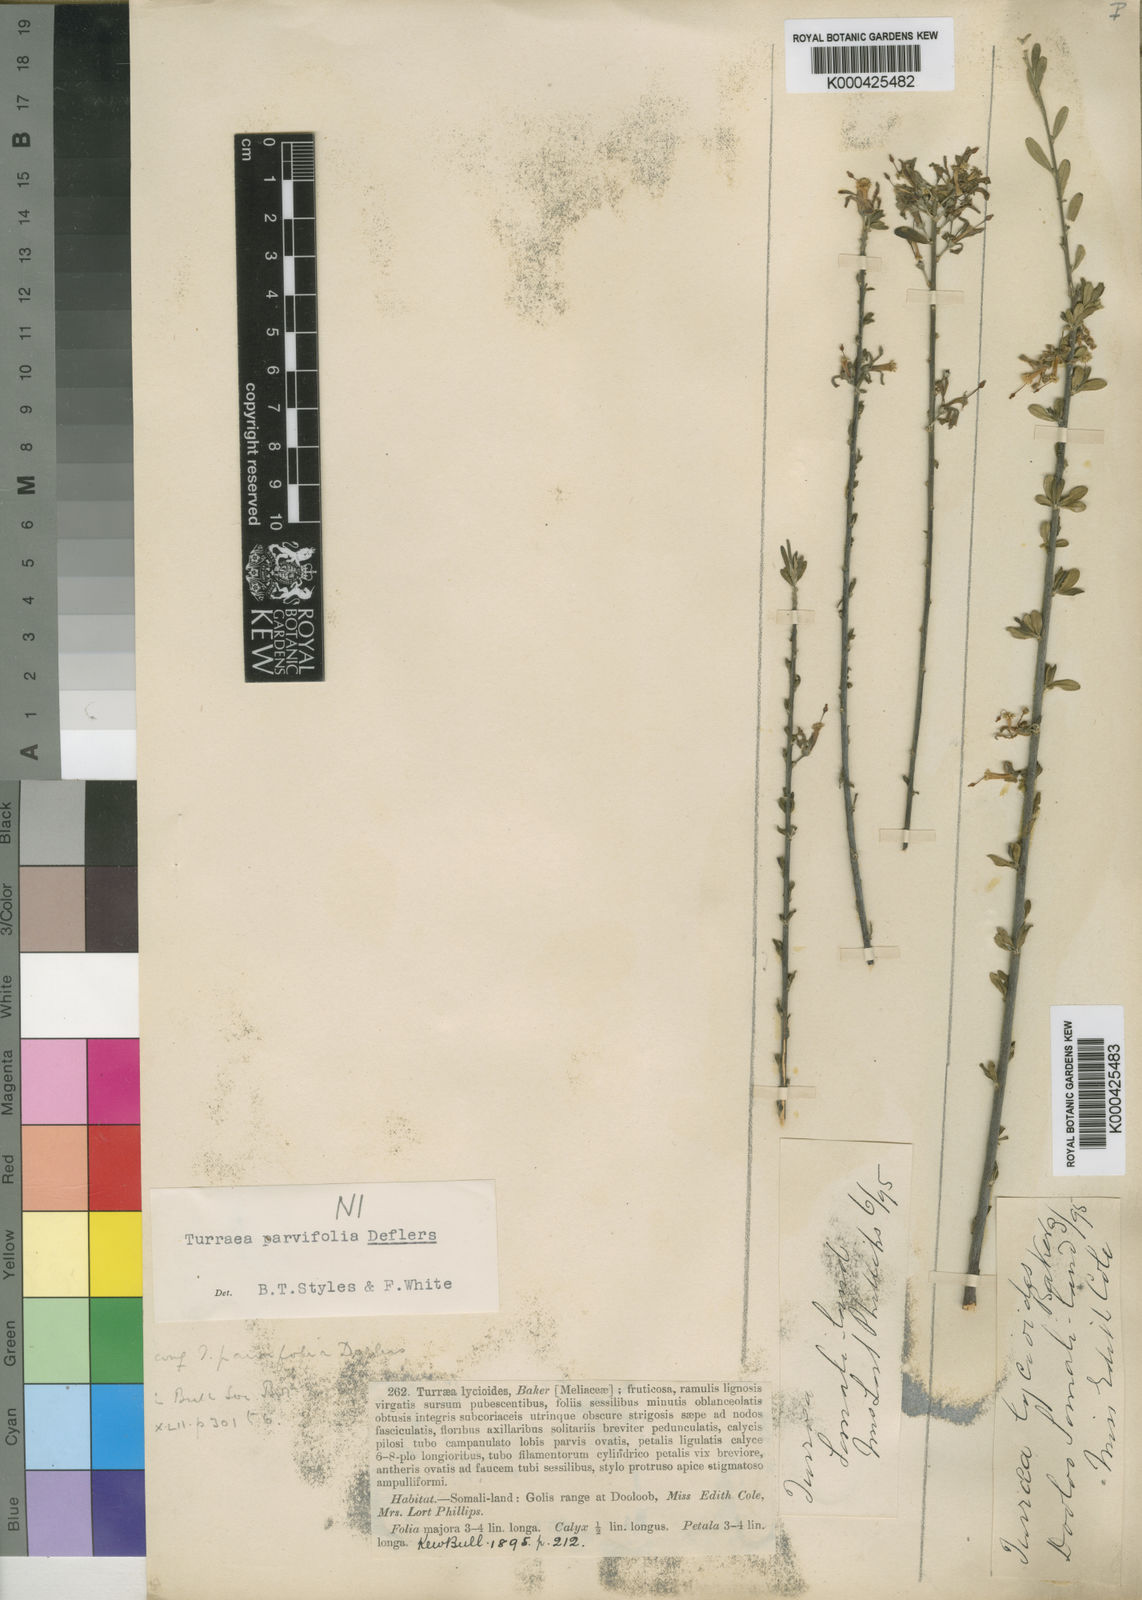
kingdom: Plantae
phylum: Tracheophyta
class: Magnoliopsida
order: Sapindales
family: Meliaceae
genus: Turraea
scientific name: Turraea parvifolia
